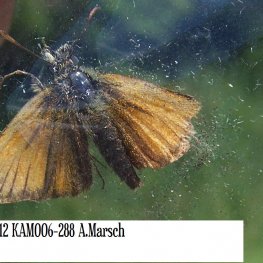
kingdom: Animalia
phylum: Arthropoda
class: Insecta
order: Lepidoptera
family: Hesperiidae
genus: Thymelicus
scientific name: Thymelicus lineola
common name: European Skipper
